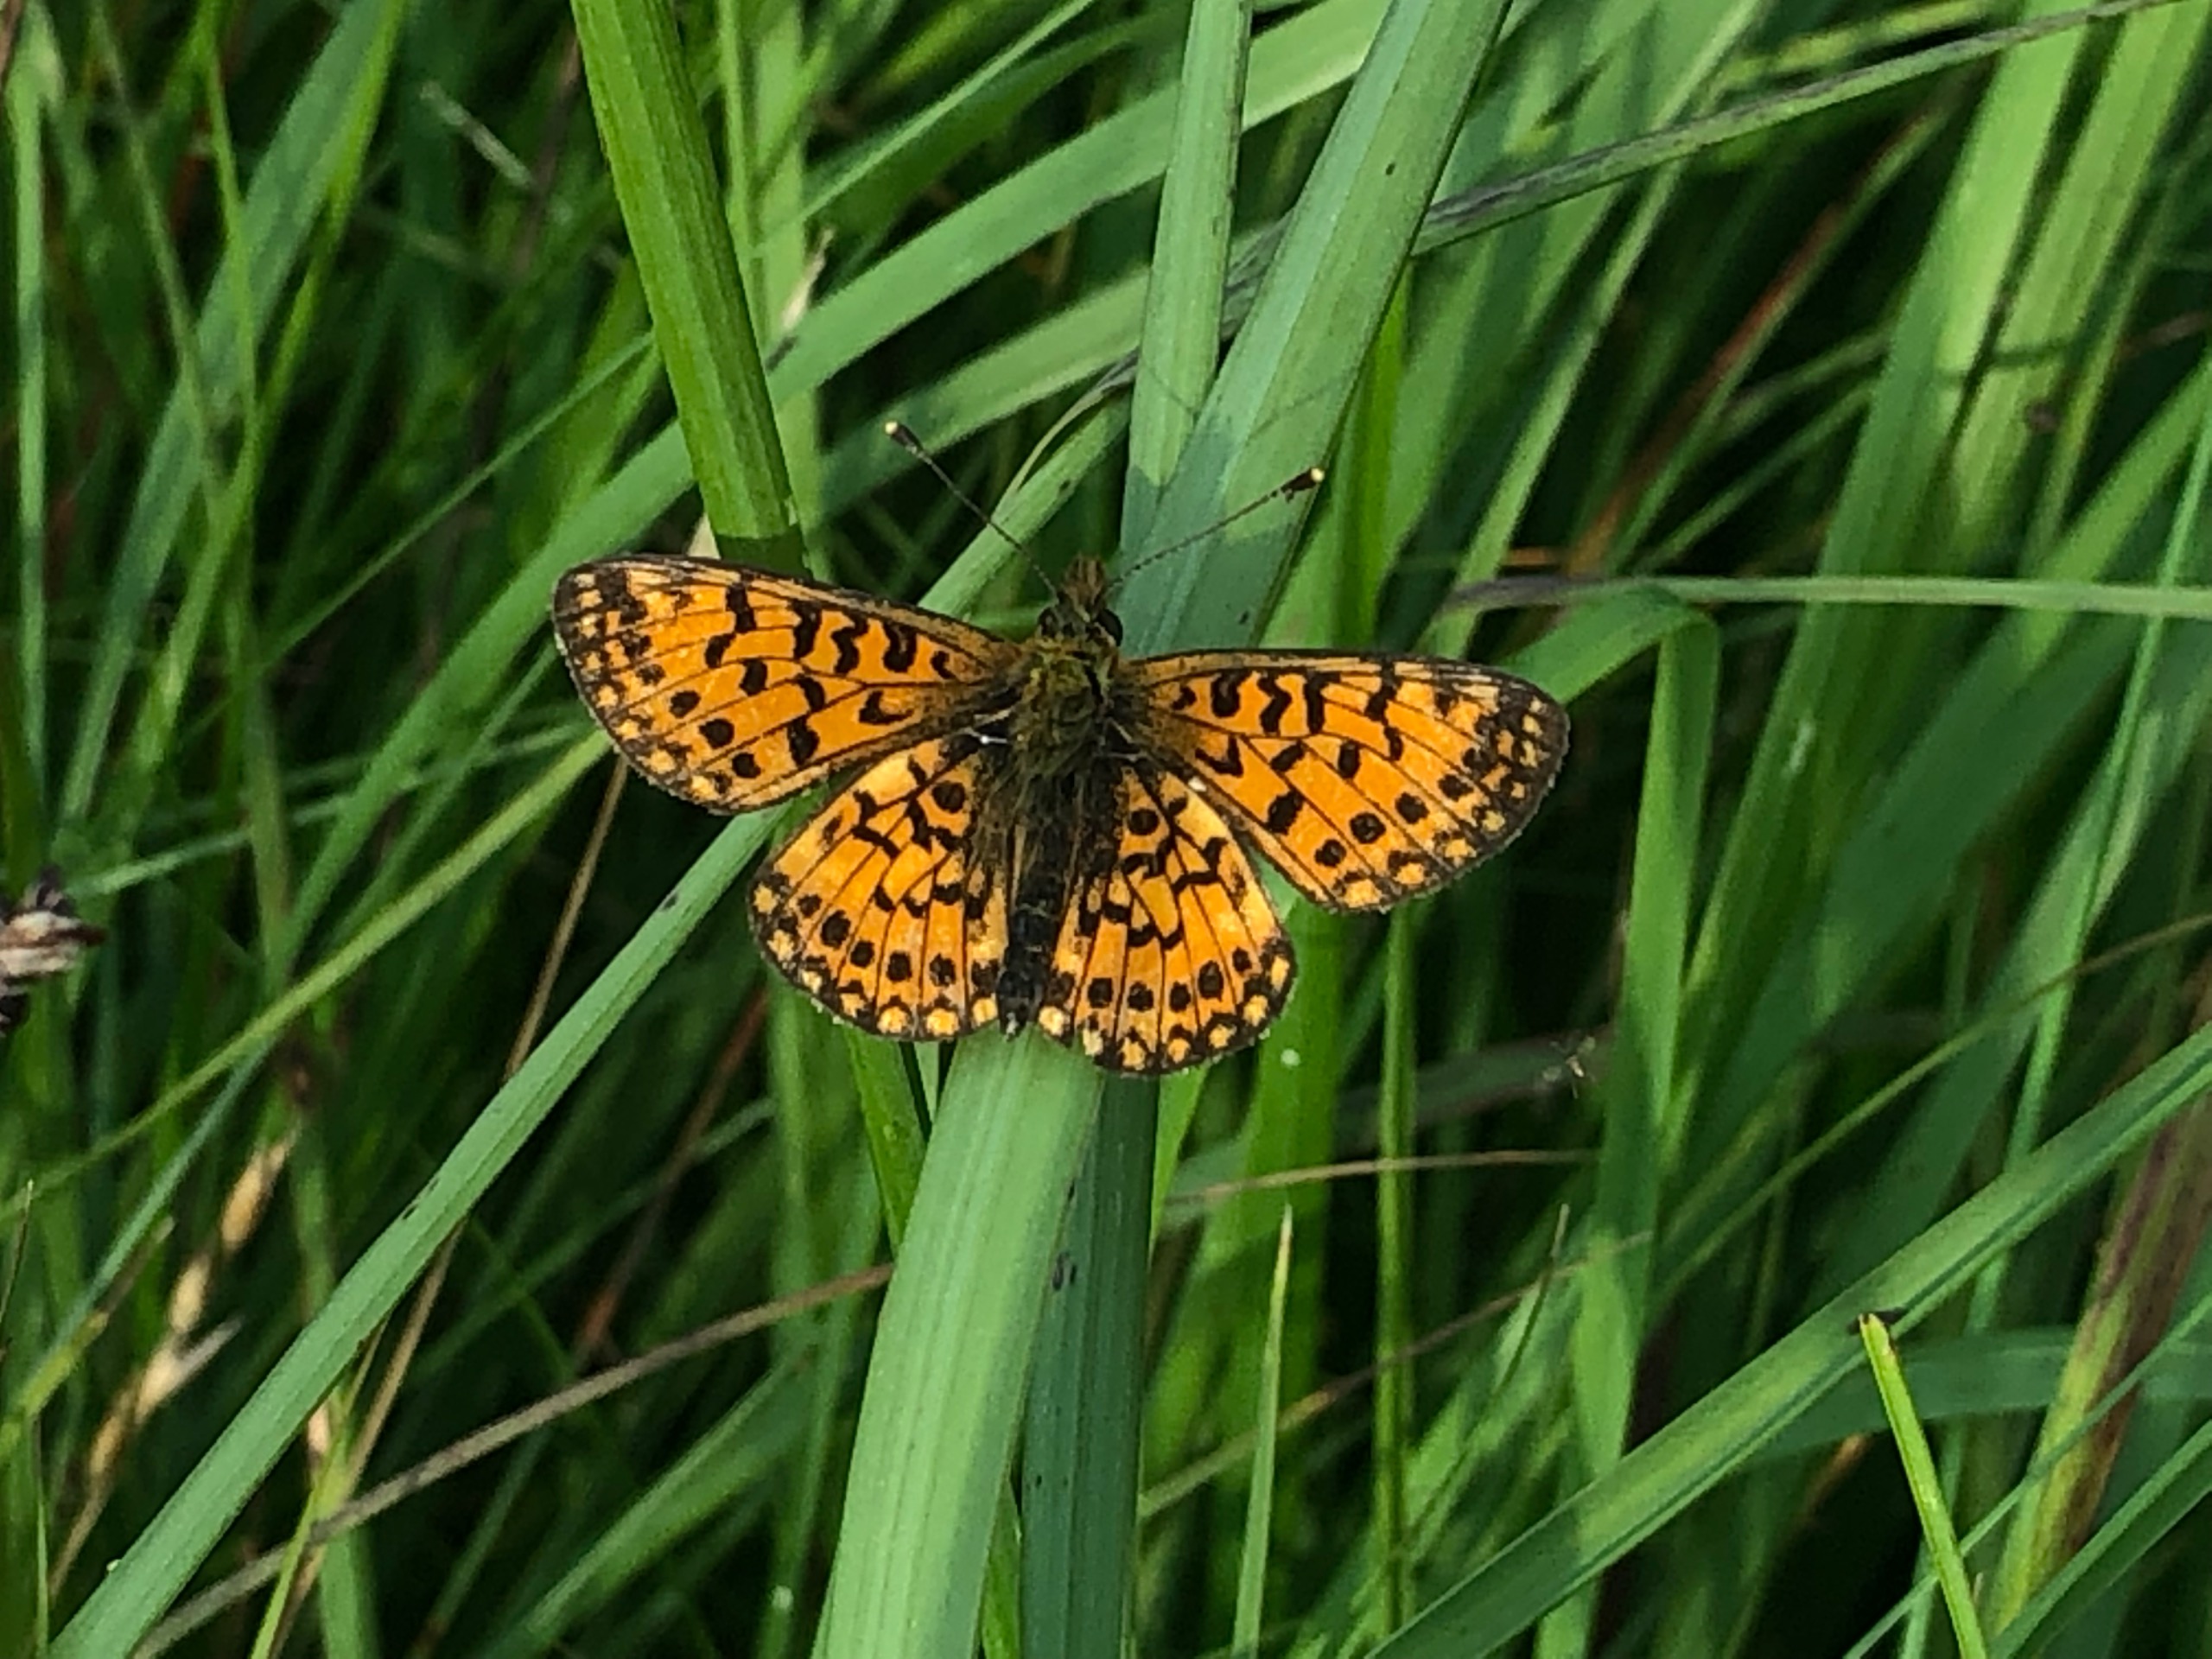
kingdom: Animalia
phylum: Arthropoda
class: Insecta
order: Lepidoptera
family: Nymphalidae
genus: Boloria
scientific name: Boloria selene
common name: Brunlig perlemorsommerfugl
